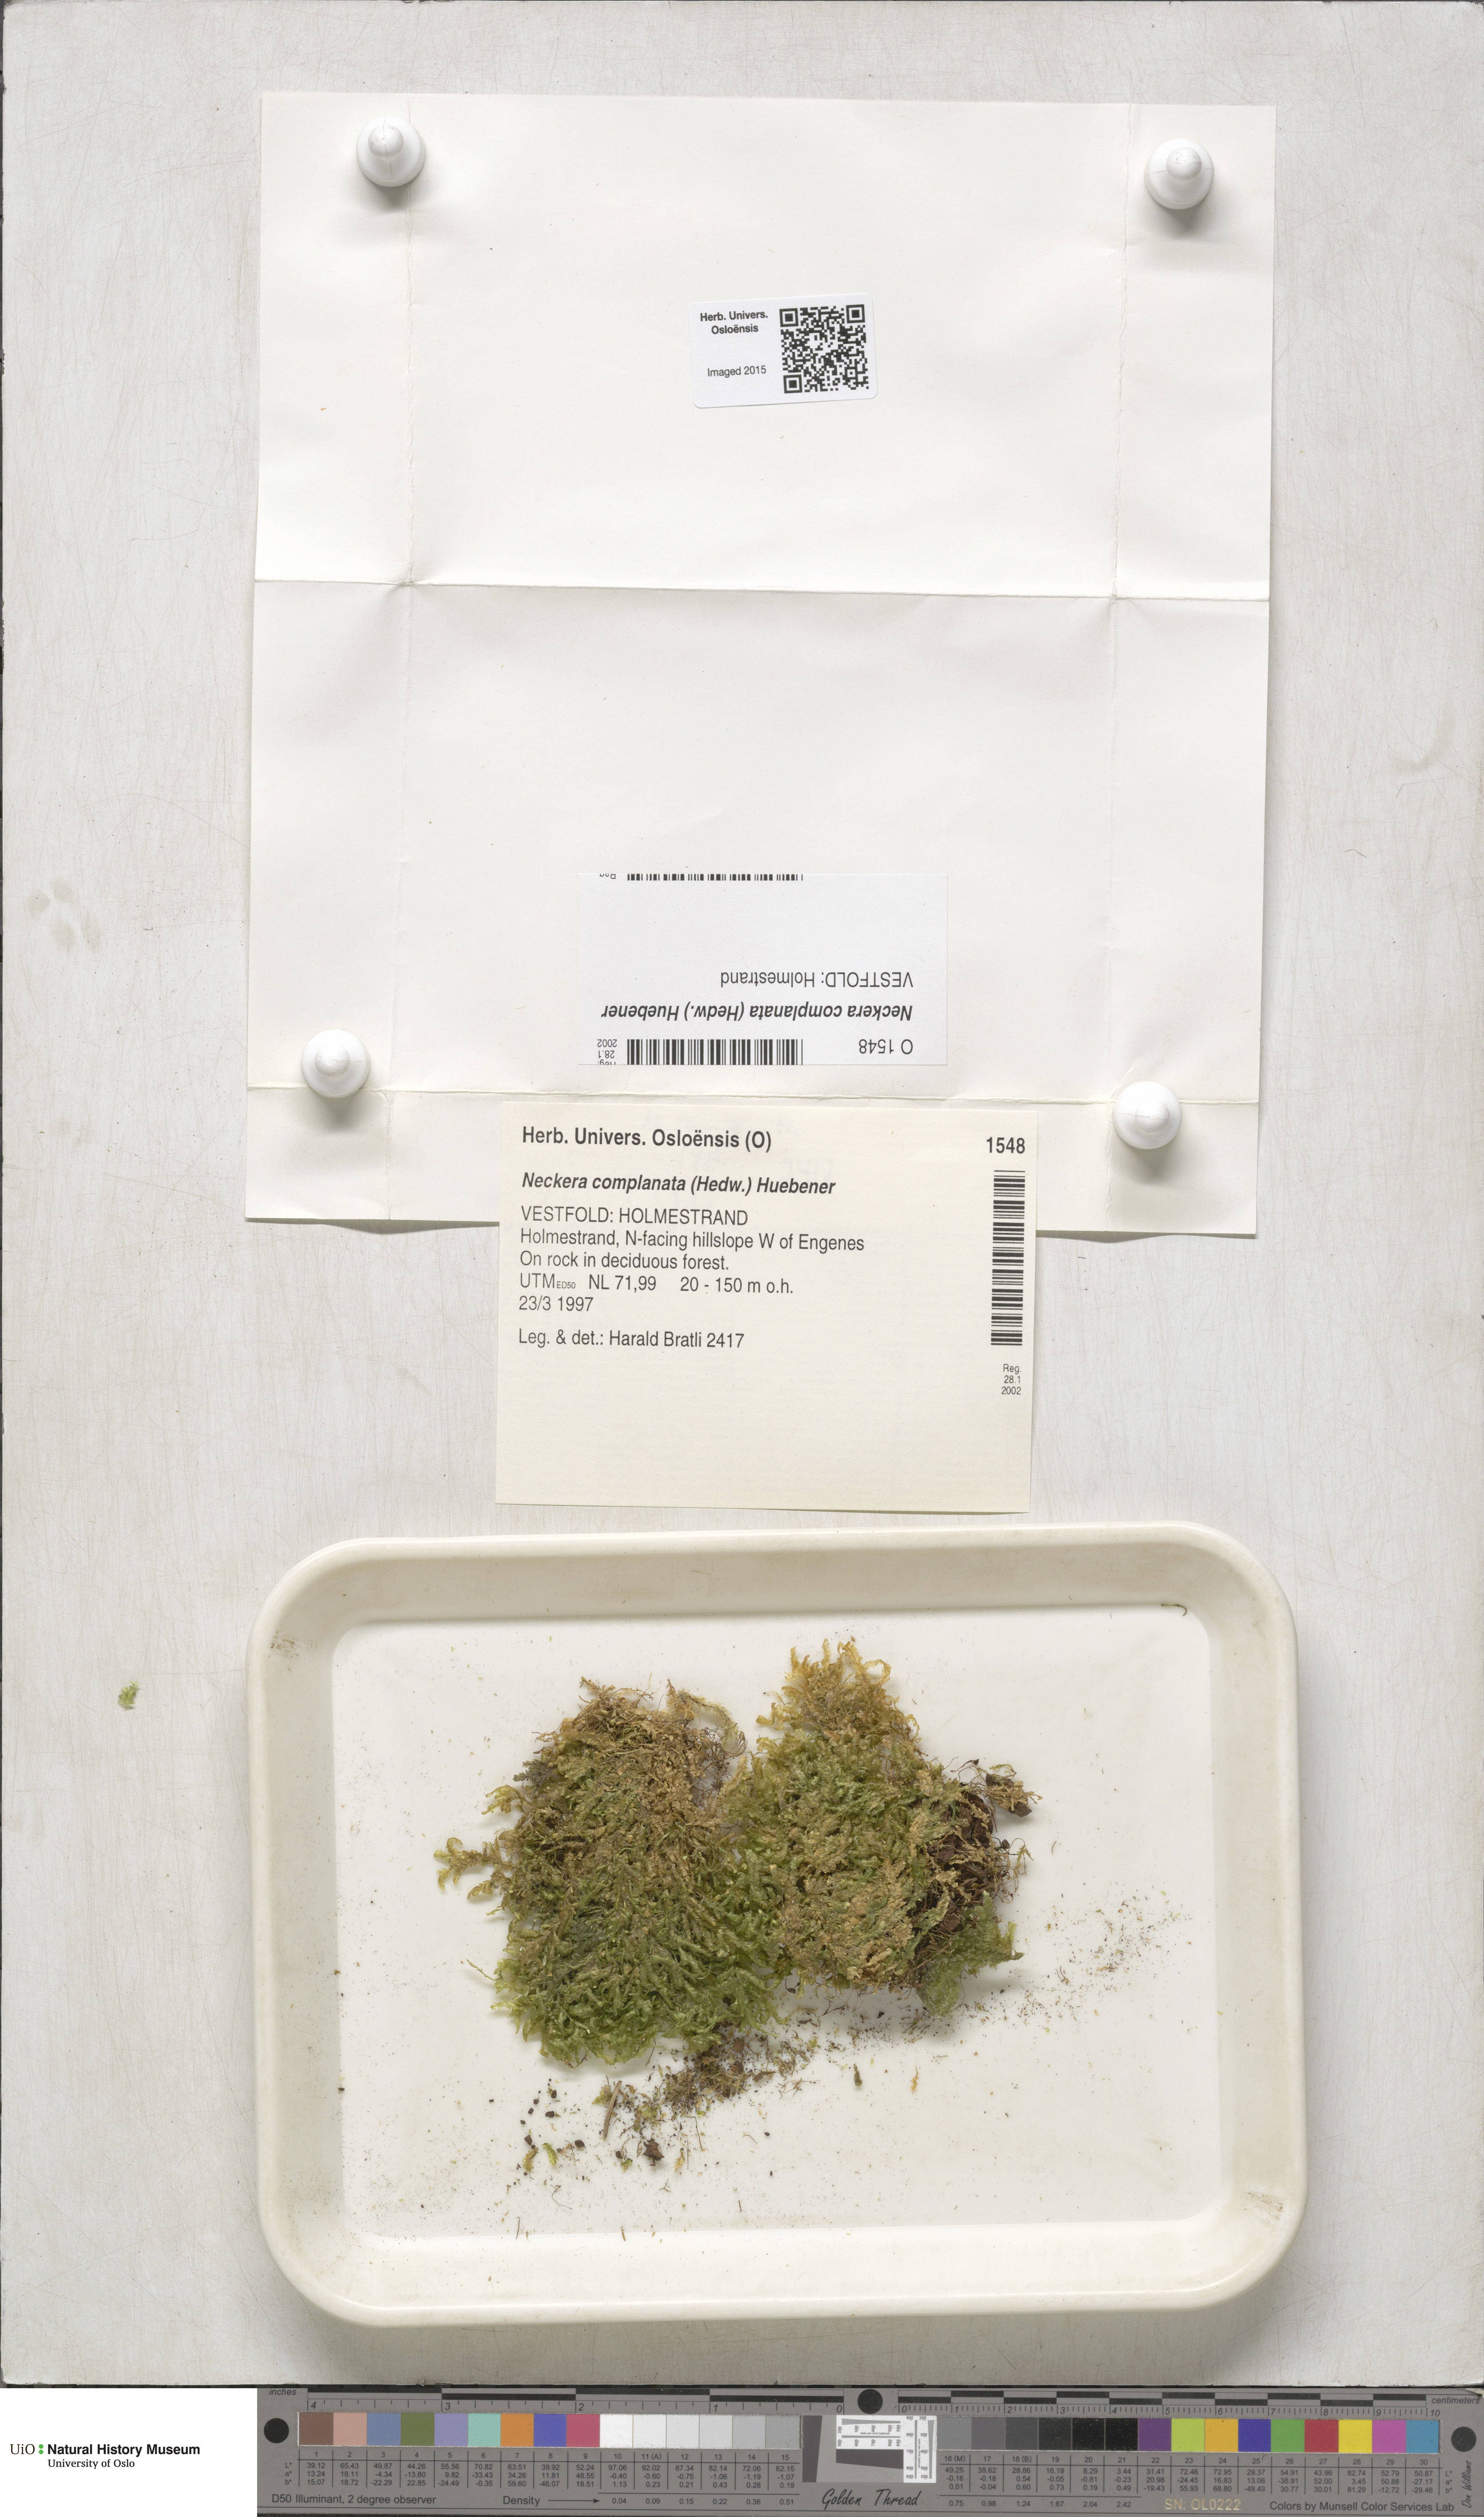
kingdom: Plantae
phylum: Bryophyta
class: Bryopsida
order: Hypnales
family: Neckeraceae
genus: Alleniella
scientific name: Alleniella complanata
